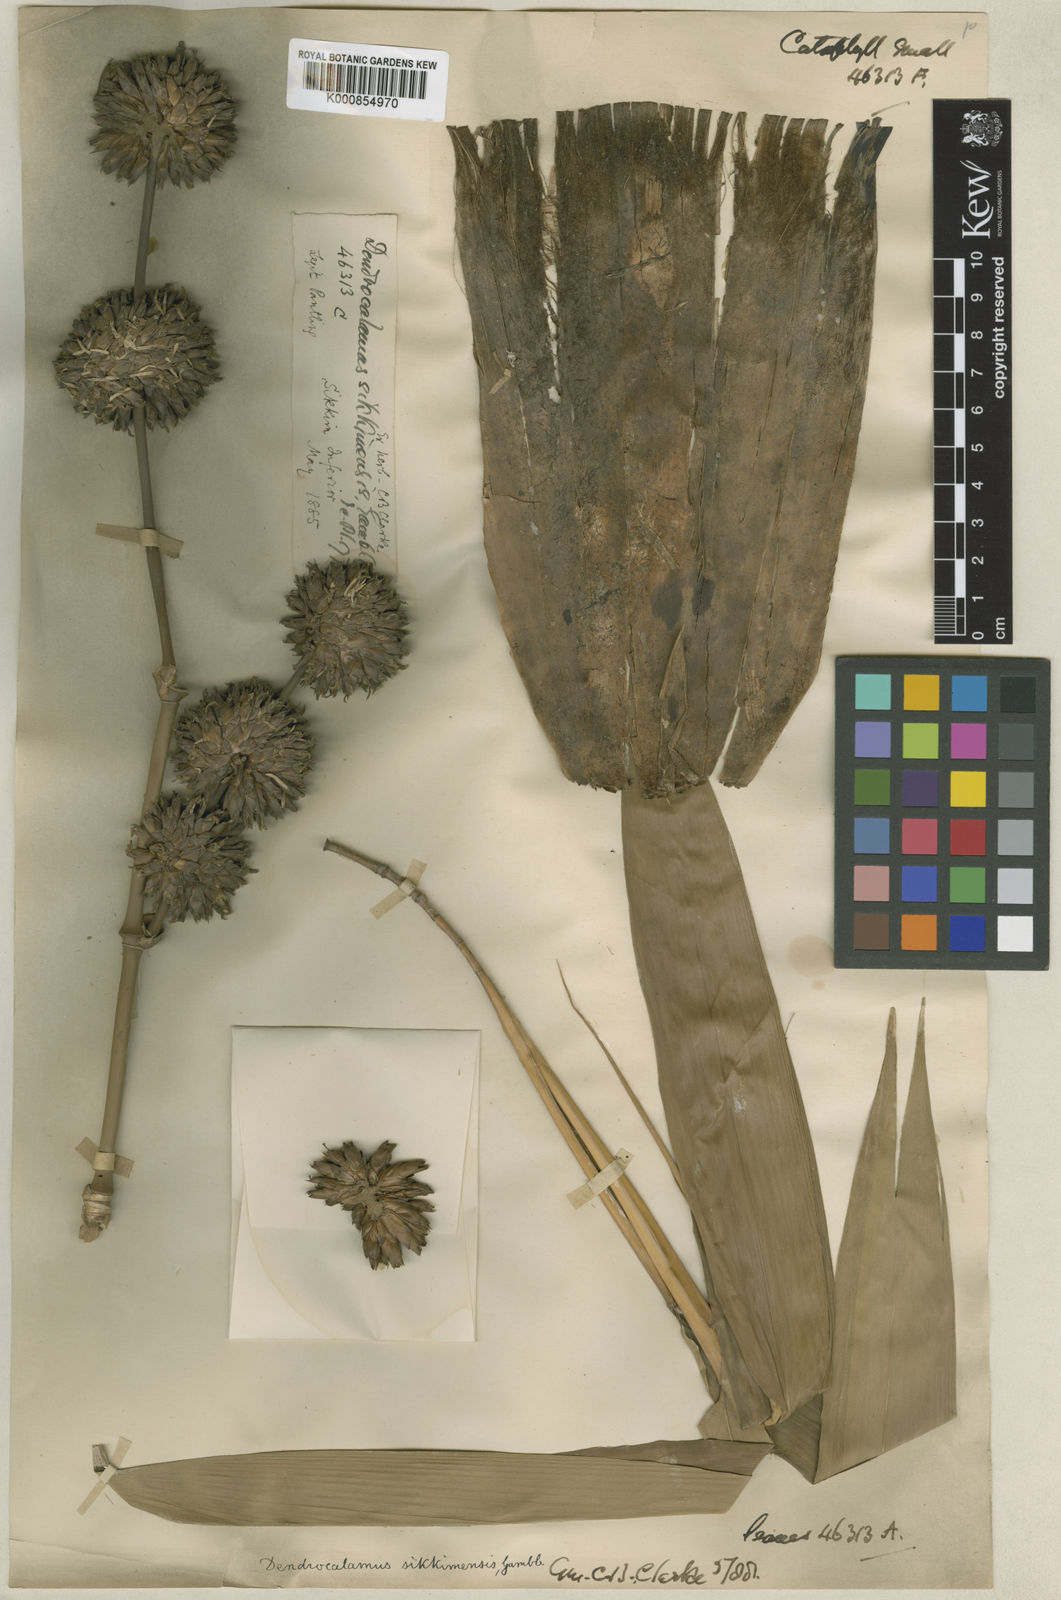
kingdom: Plantae
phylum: Tracheophyta
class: Liliopsida
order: Poales
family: Poaceae
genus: Dendrocalamus
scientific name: Dendrocalamus sikkimensis
